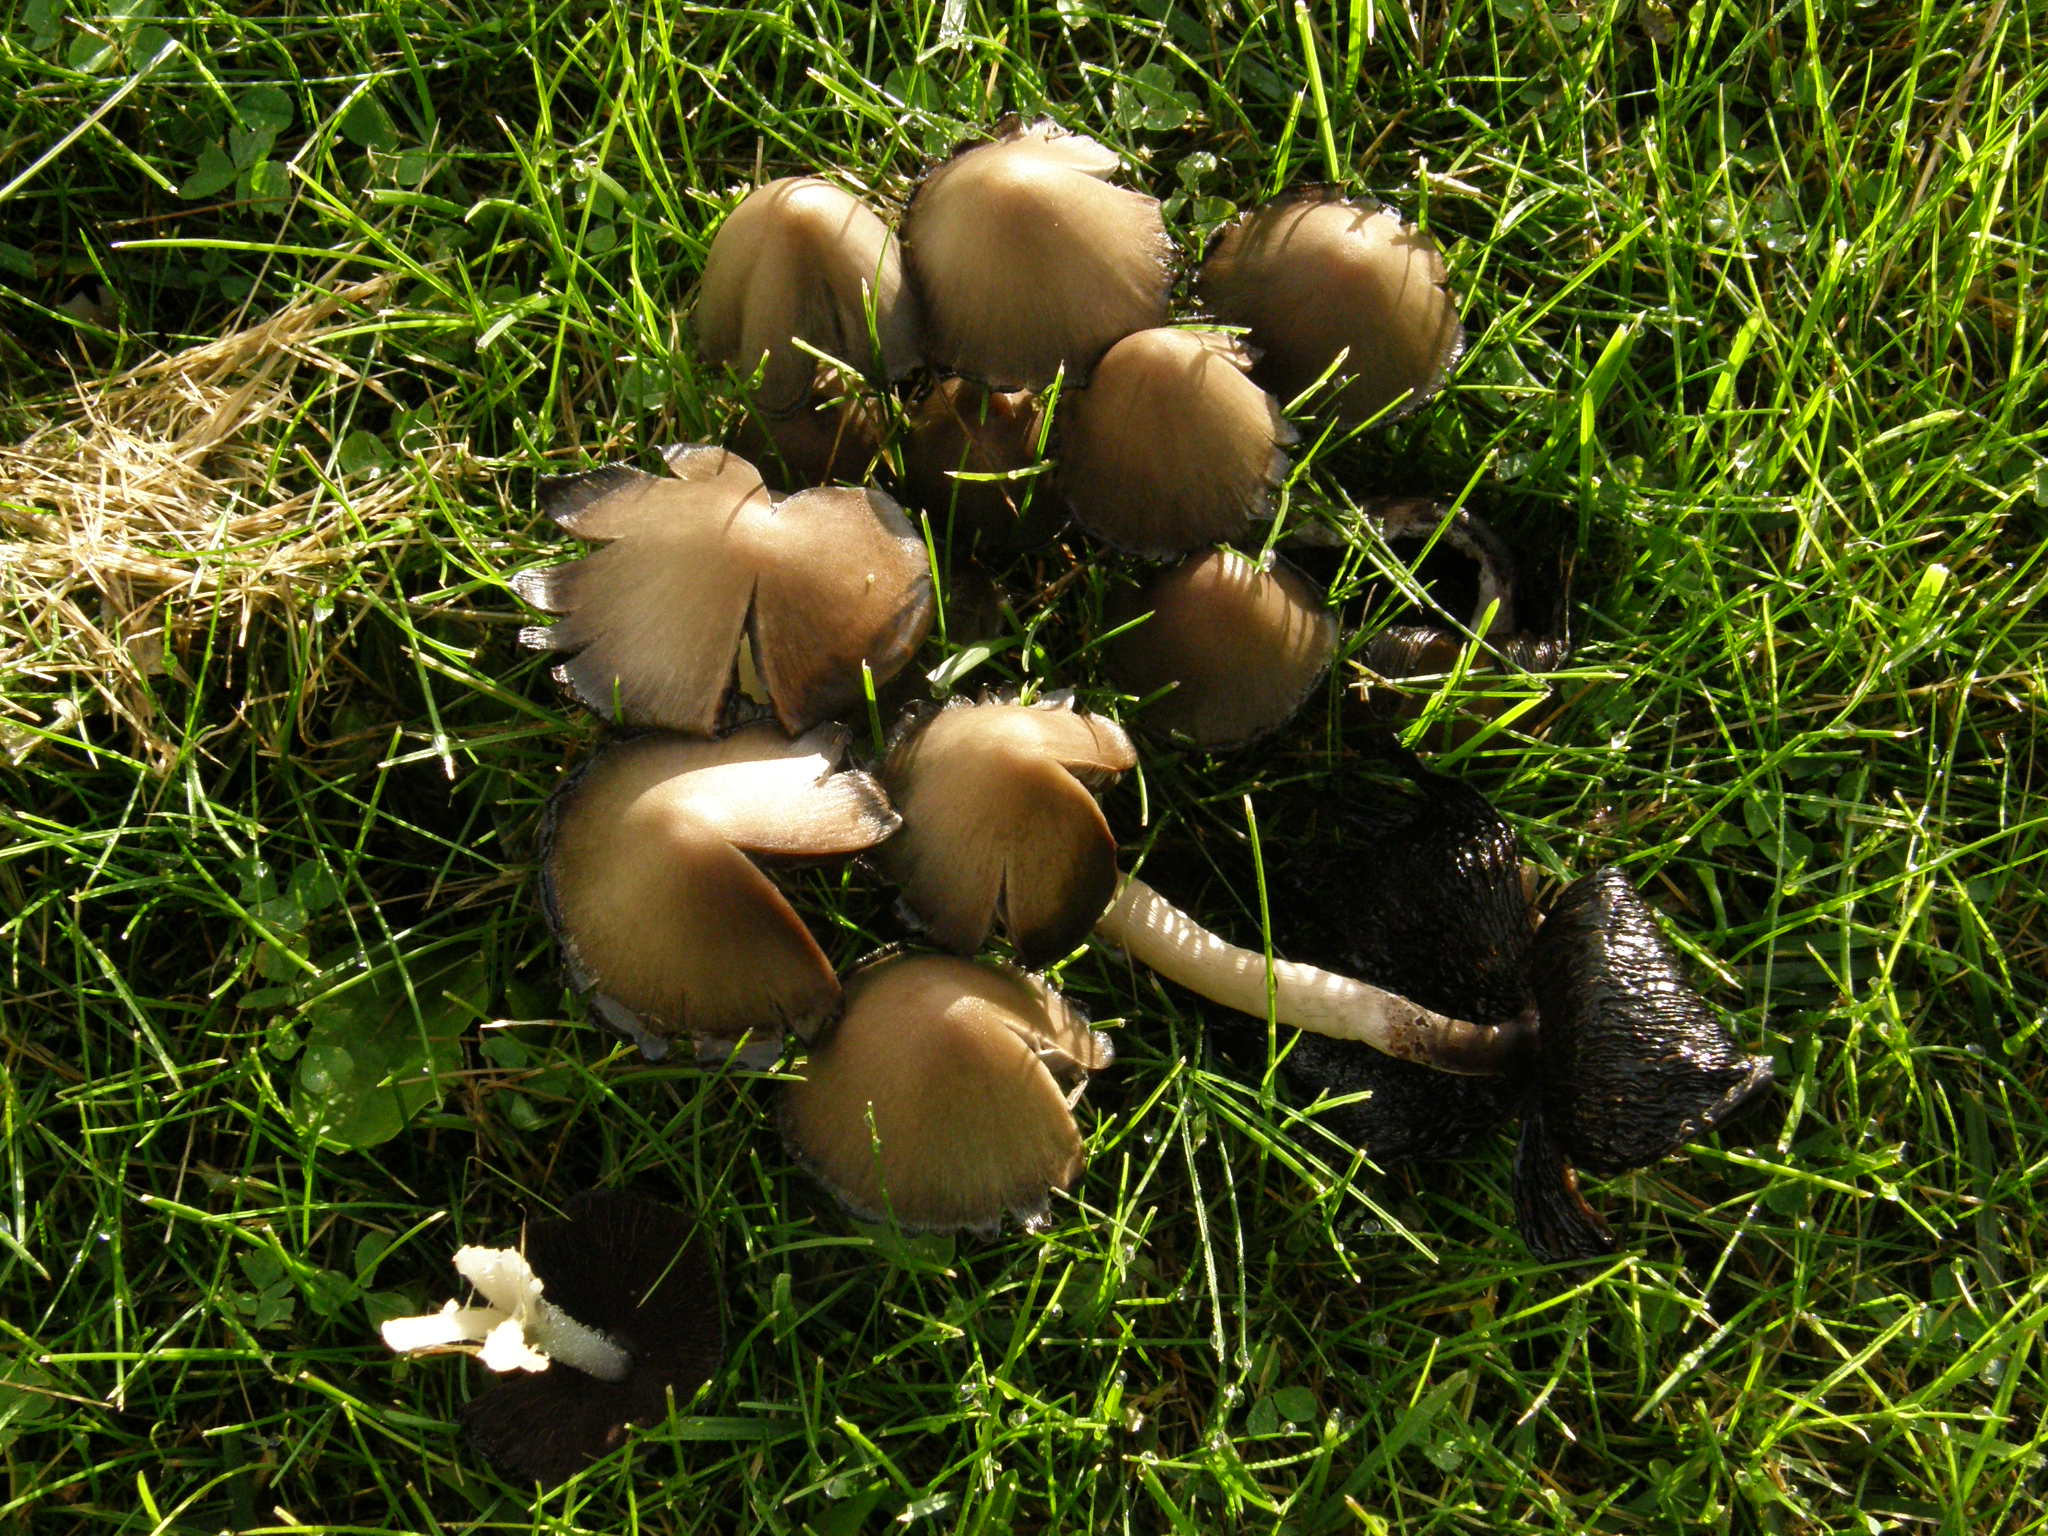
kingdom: Fungi
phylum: Basidiomycota
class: Agaricomycetes
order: Agaricales
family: Psathyrellaceae
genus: Coprinopsis
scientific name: Coprinopsis atramentaria
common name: Common ink-cap
